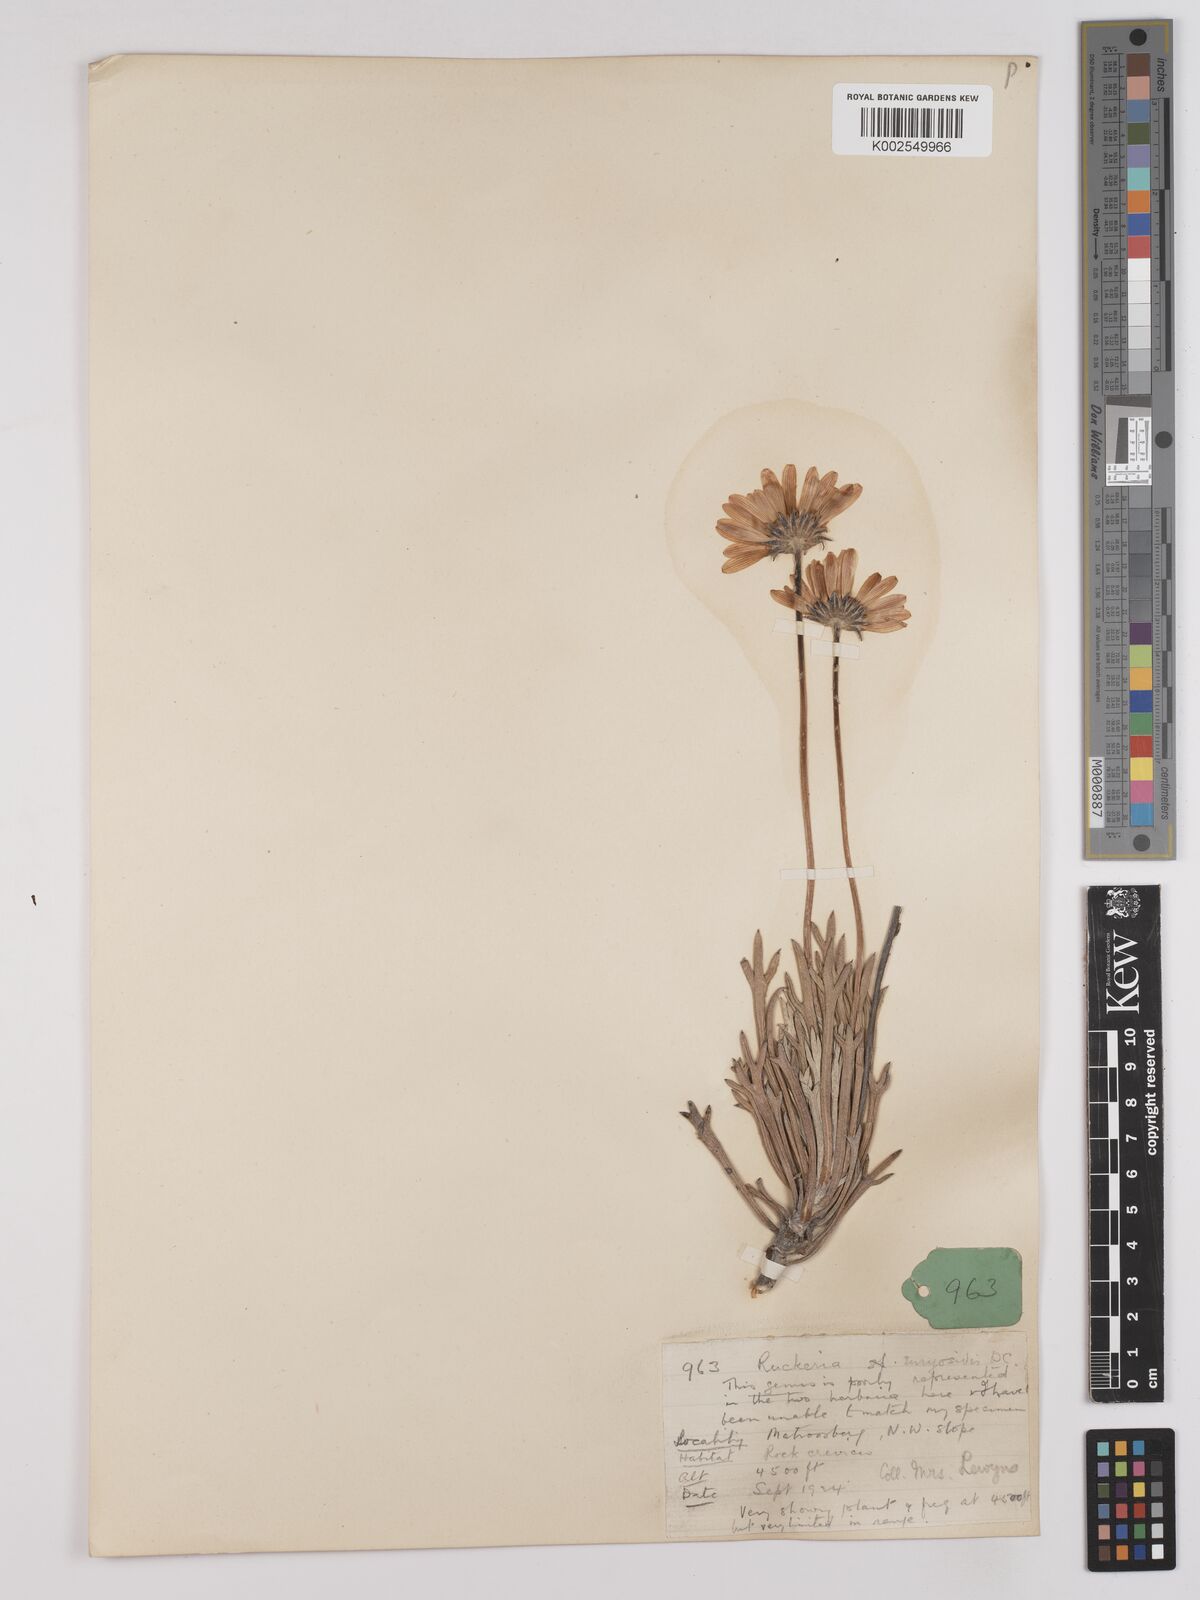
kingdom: Plantae
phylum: Tracheophyta
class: Magnoliopsida
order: Asterales
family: Asteraceae
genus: Euryops
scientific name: Euryops euryopoides
